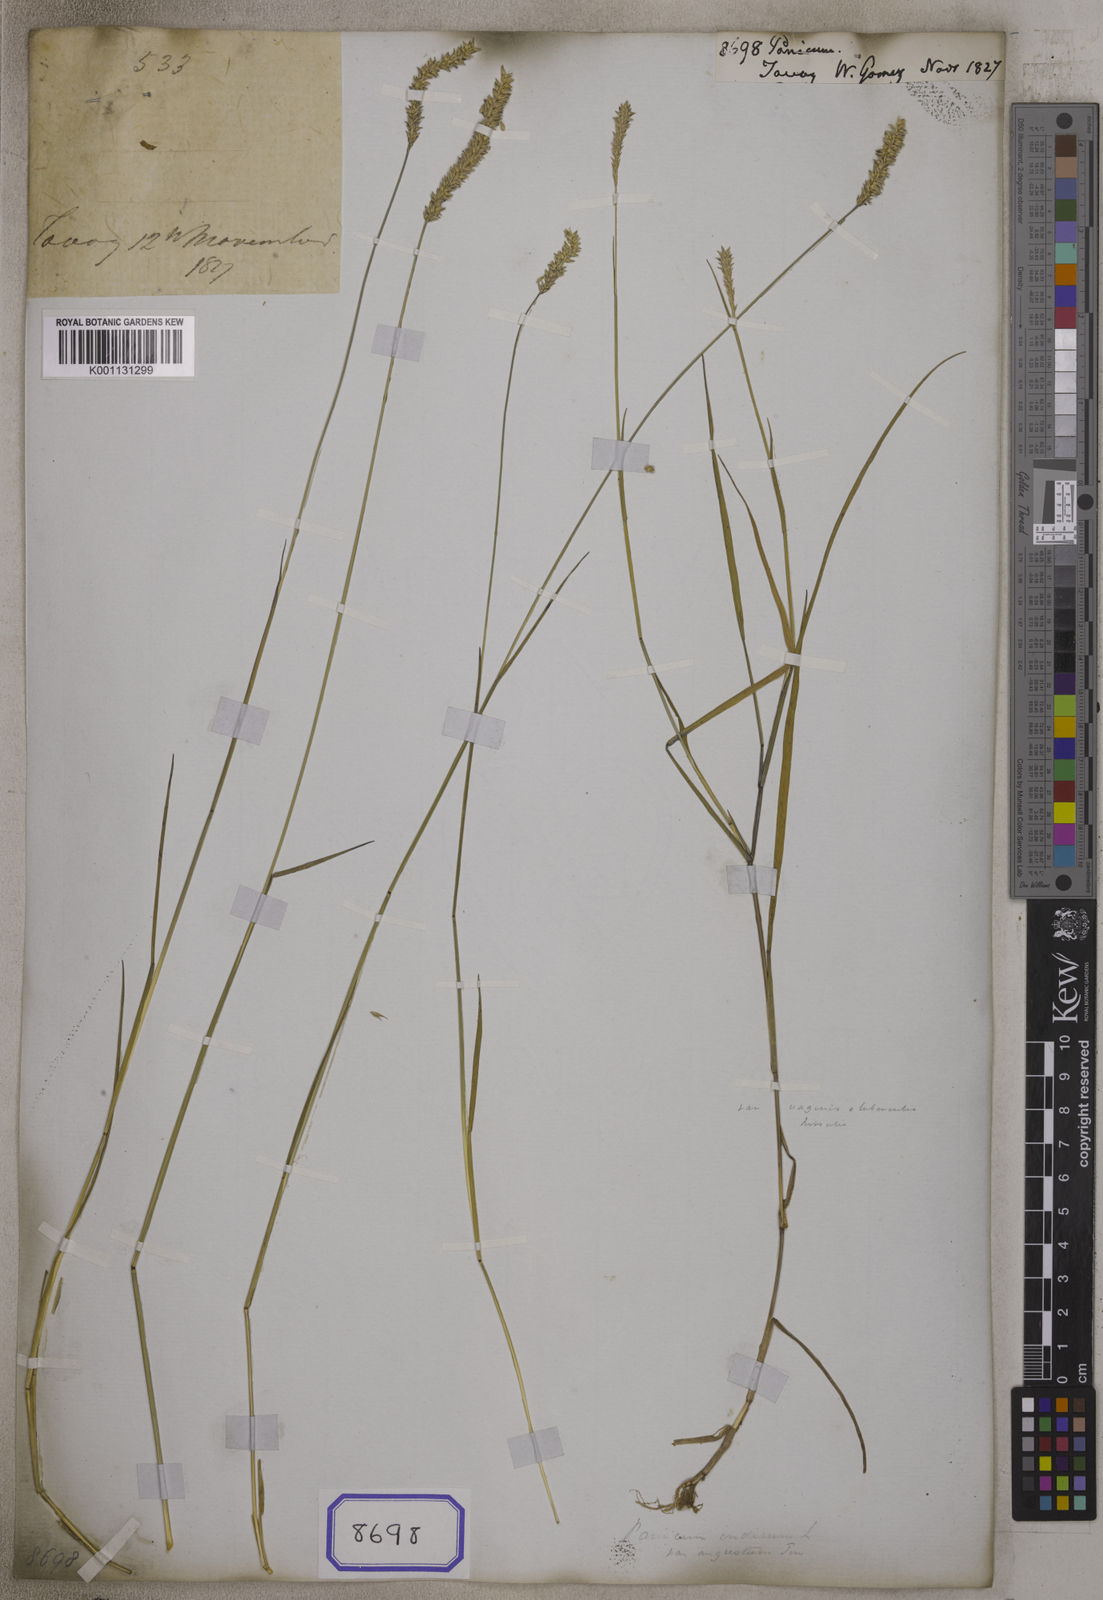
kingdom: Plantae
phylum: Tracheophyta
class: Liliopsida
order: Poales
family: Poaceae
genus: Panicum
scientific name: Panicum
